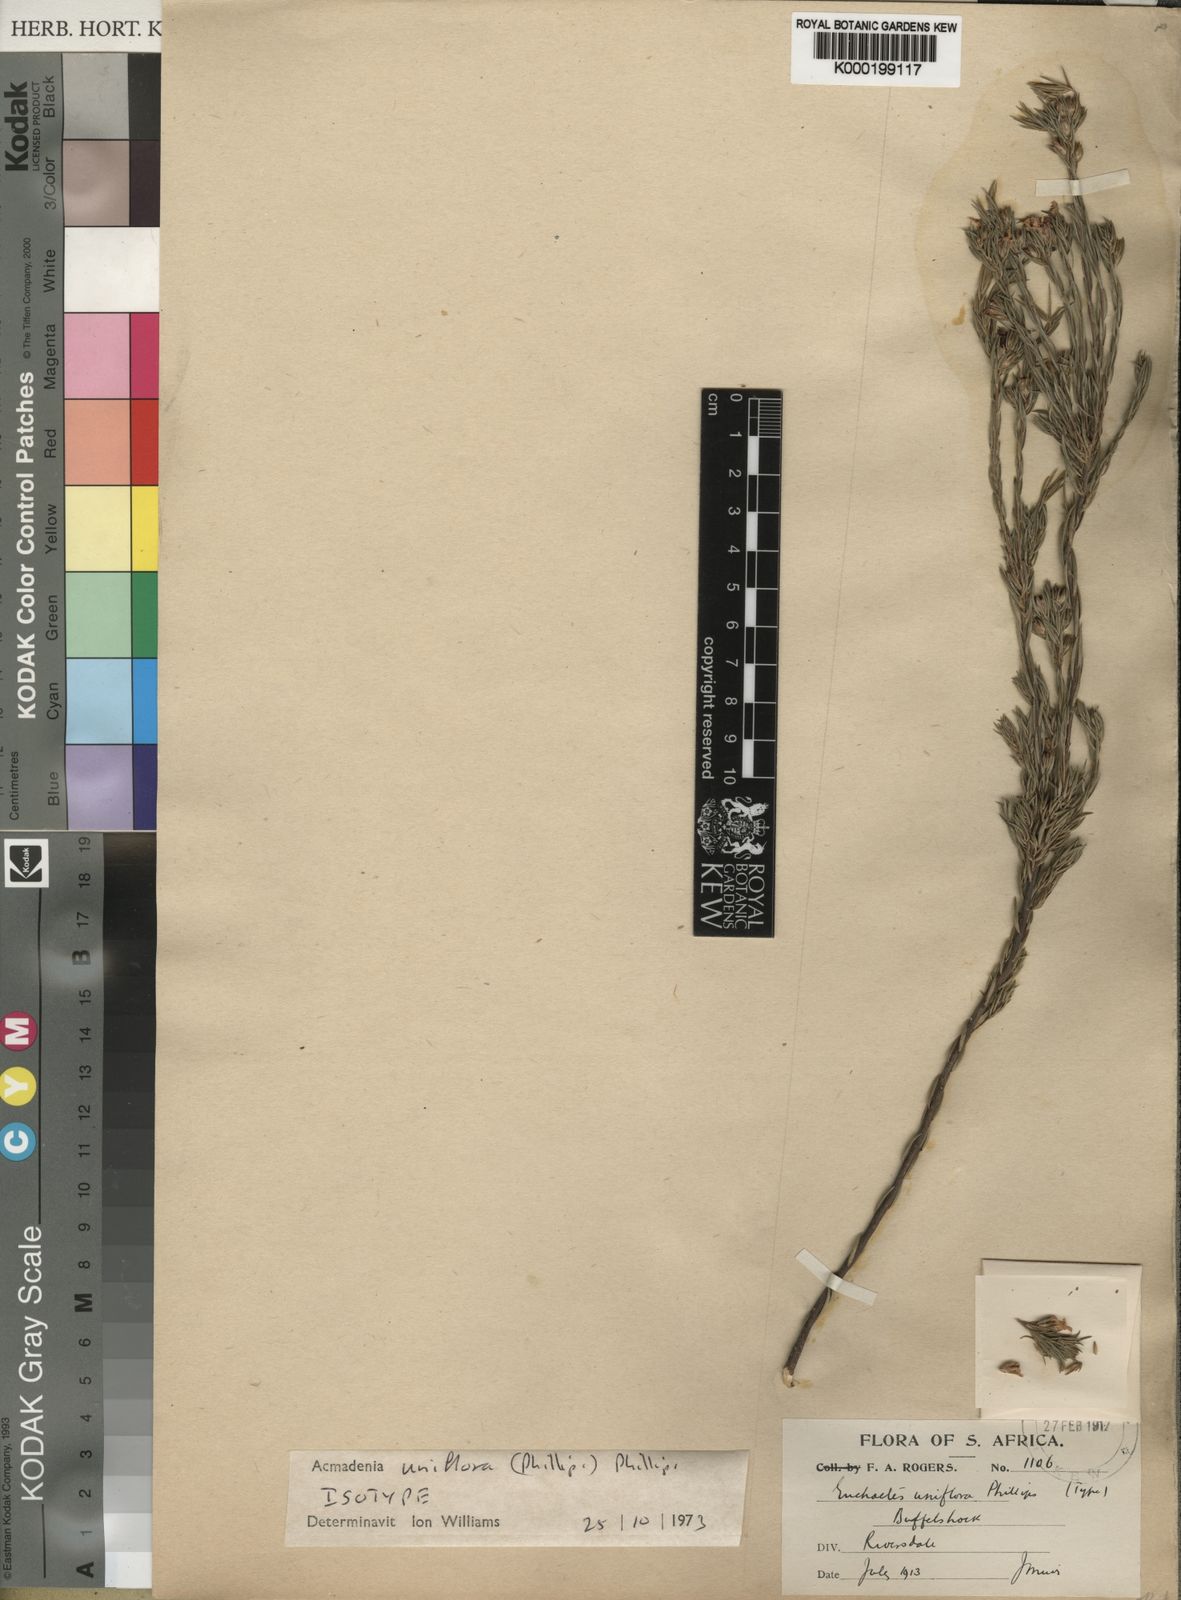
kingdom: Plantae
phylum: Tracheophyta
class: Magnoliopsida
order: Sapindales
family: Rutaceae
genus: Acmadenia
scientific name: Acmadenia obtusata
